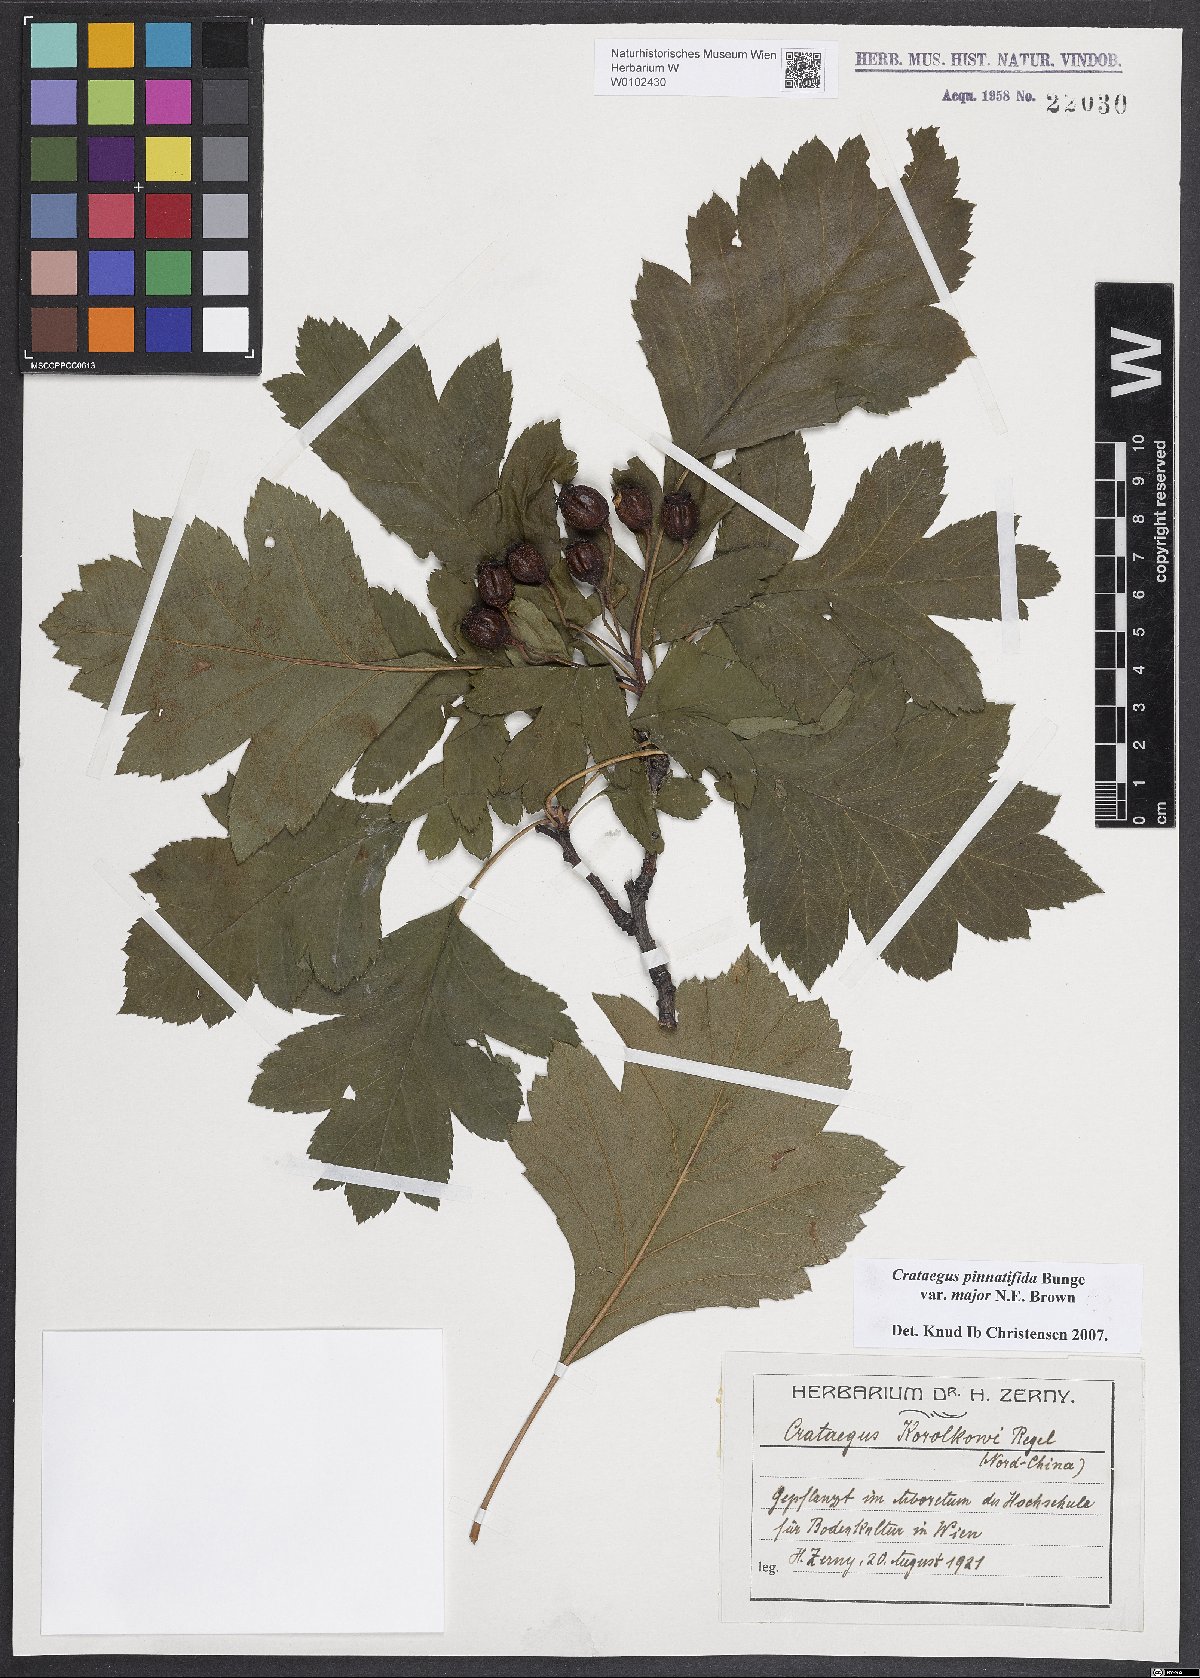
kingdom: Plantae
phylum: Tracheophyta
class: Magnoliopsida
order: Rosales
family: Rosaceae
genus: Crataegus
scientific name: Crataegus pinnatifida
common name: Chinese haw
